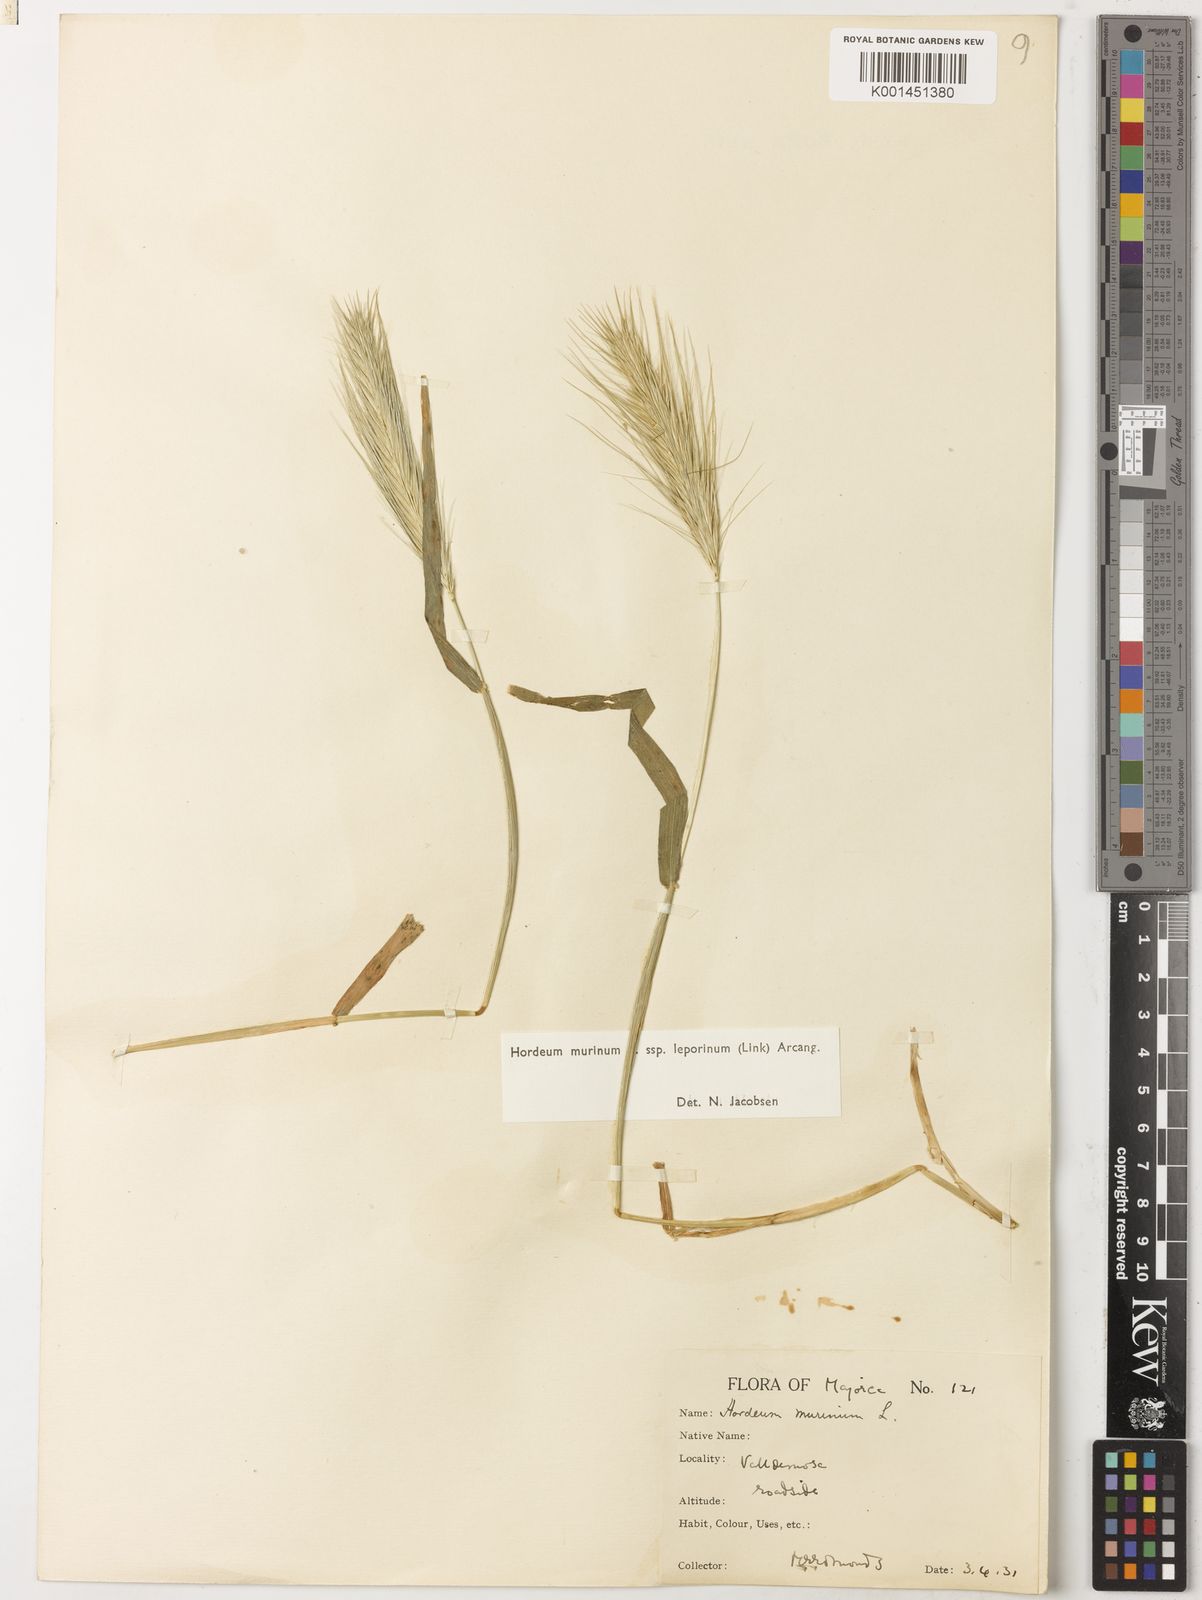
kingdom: Plantae
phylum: Tracheophyta
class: Liliopsida
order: Poales
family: Poaceae
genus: Hordeum
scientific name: Hordeum murinum
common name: Wall barley
